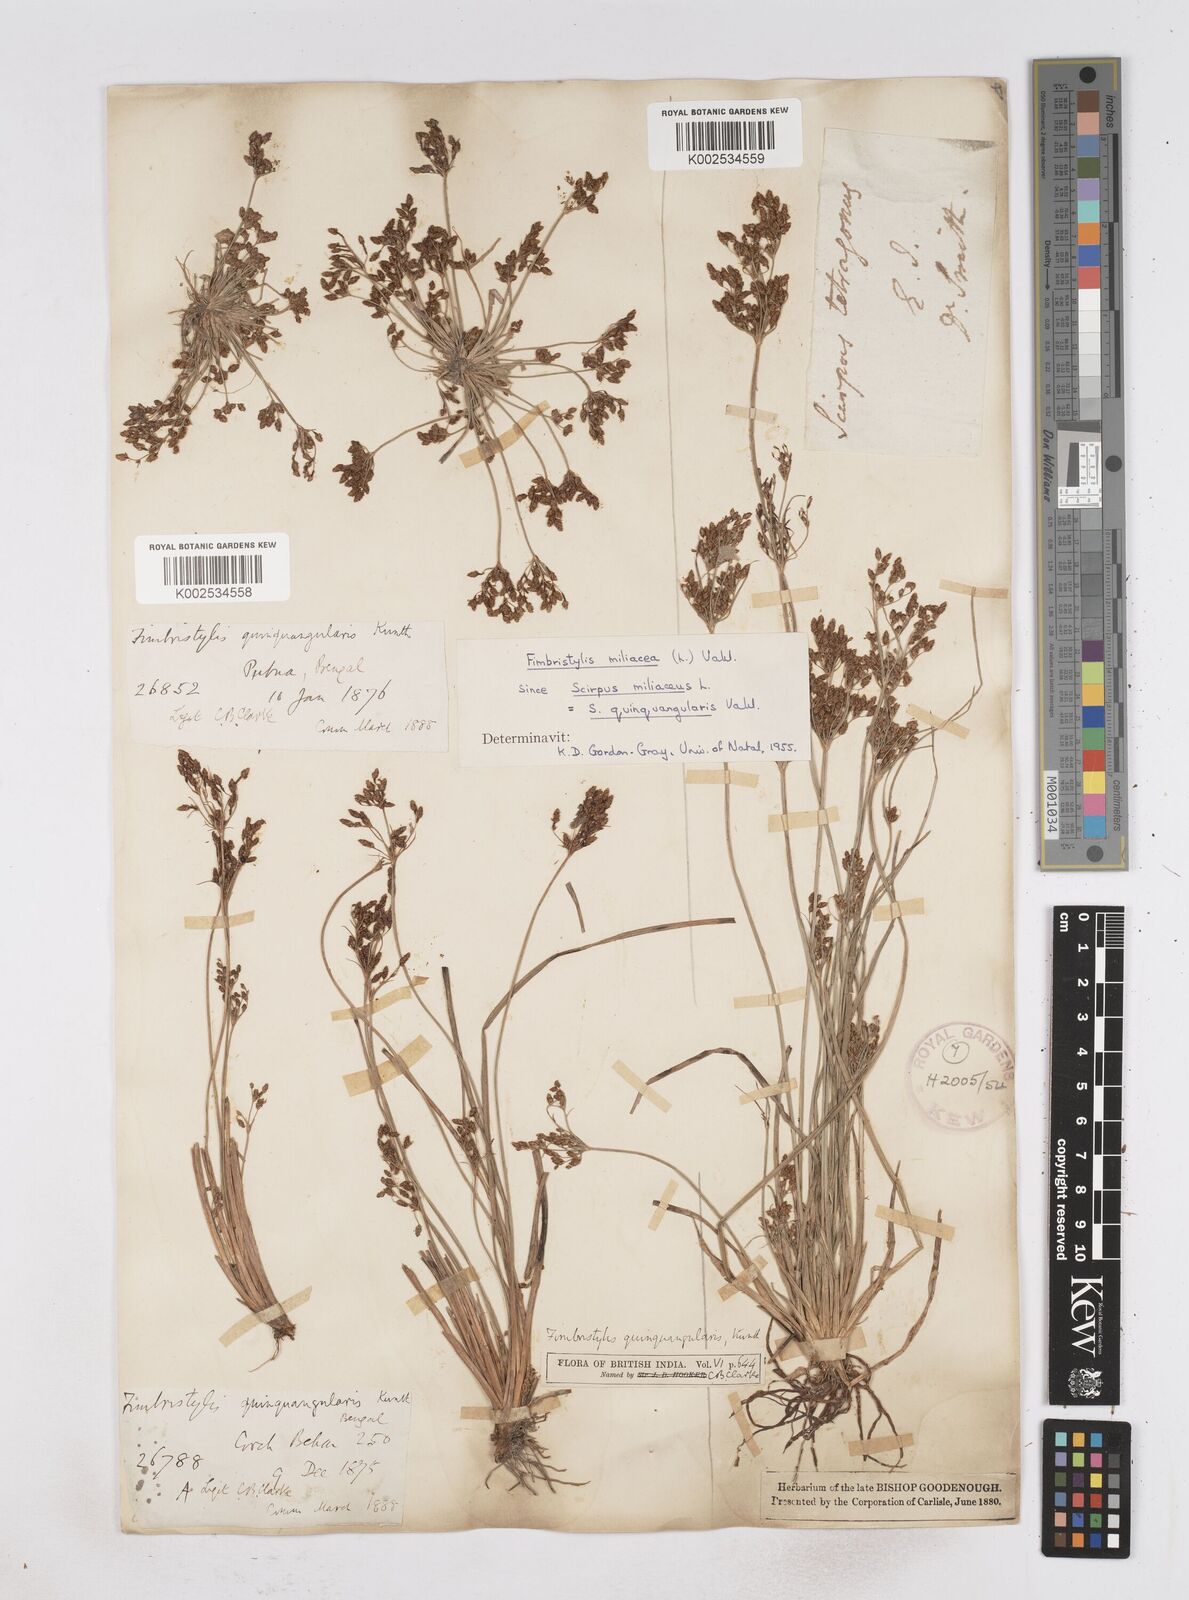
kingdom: Plantae
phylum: Tracheophyta
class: Liliopsida
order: Poales
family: Cyperaceae
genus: Fimbristylis
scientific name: Fimbristylis quinquangularis
